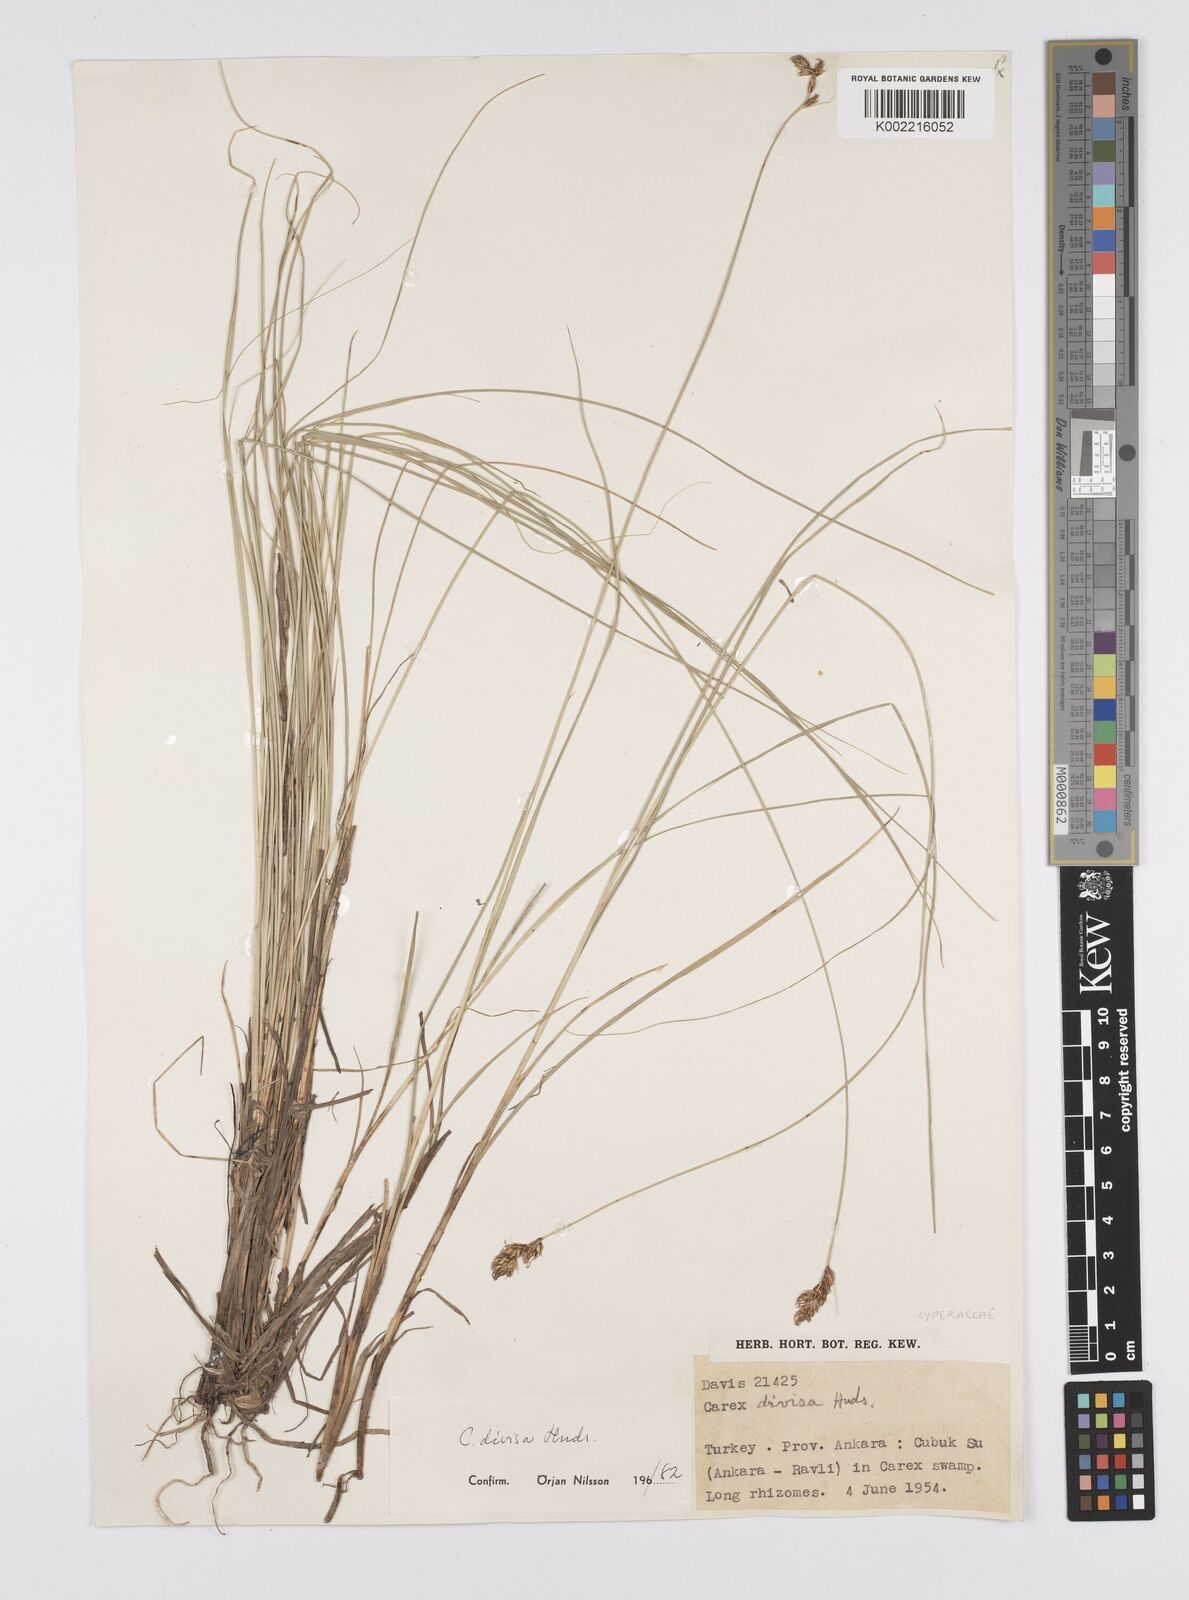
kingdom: Plantae
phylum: Tracheophyta
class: Liliopsida
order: Poales
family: Cyperaceae
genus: Carex
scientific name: Carex divisa
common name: Divided sedge
